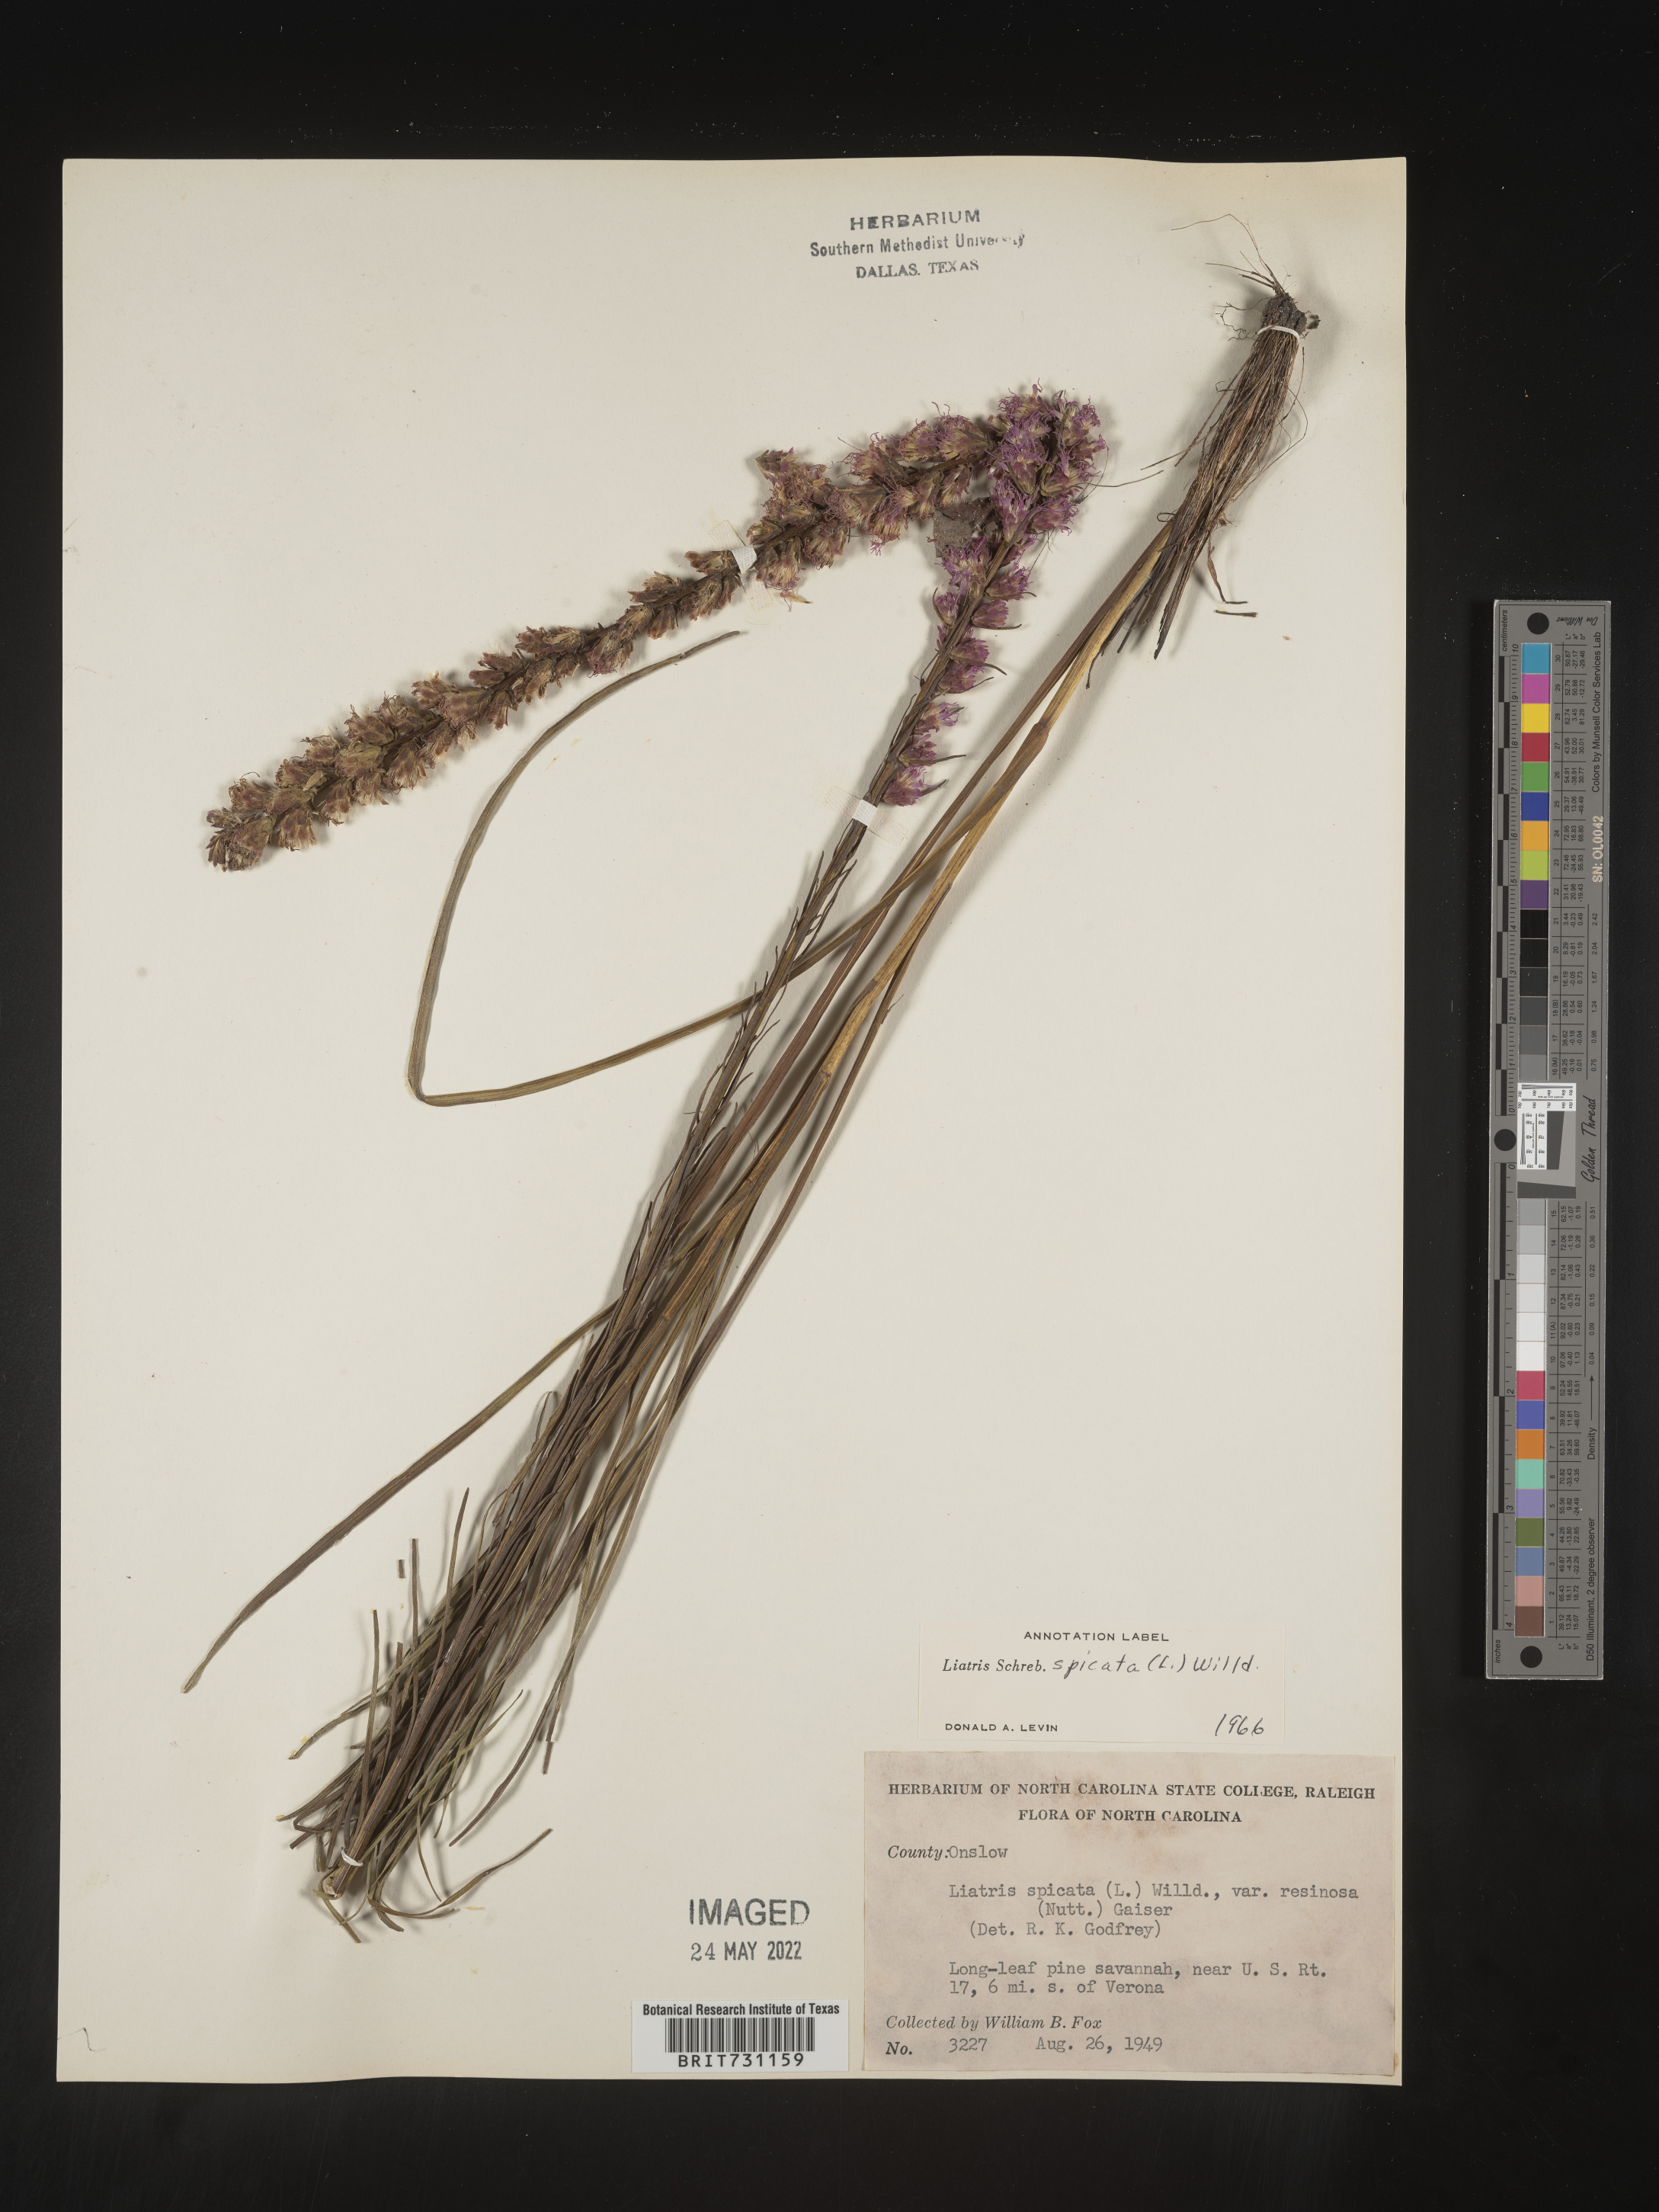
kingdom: Plantae
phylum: Tracheophyta
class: Magnoliopsida
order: Asterales
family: Asteraceae
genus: Liatris
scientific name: Liatris spicata
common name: Florist gayfeather
